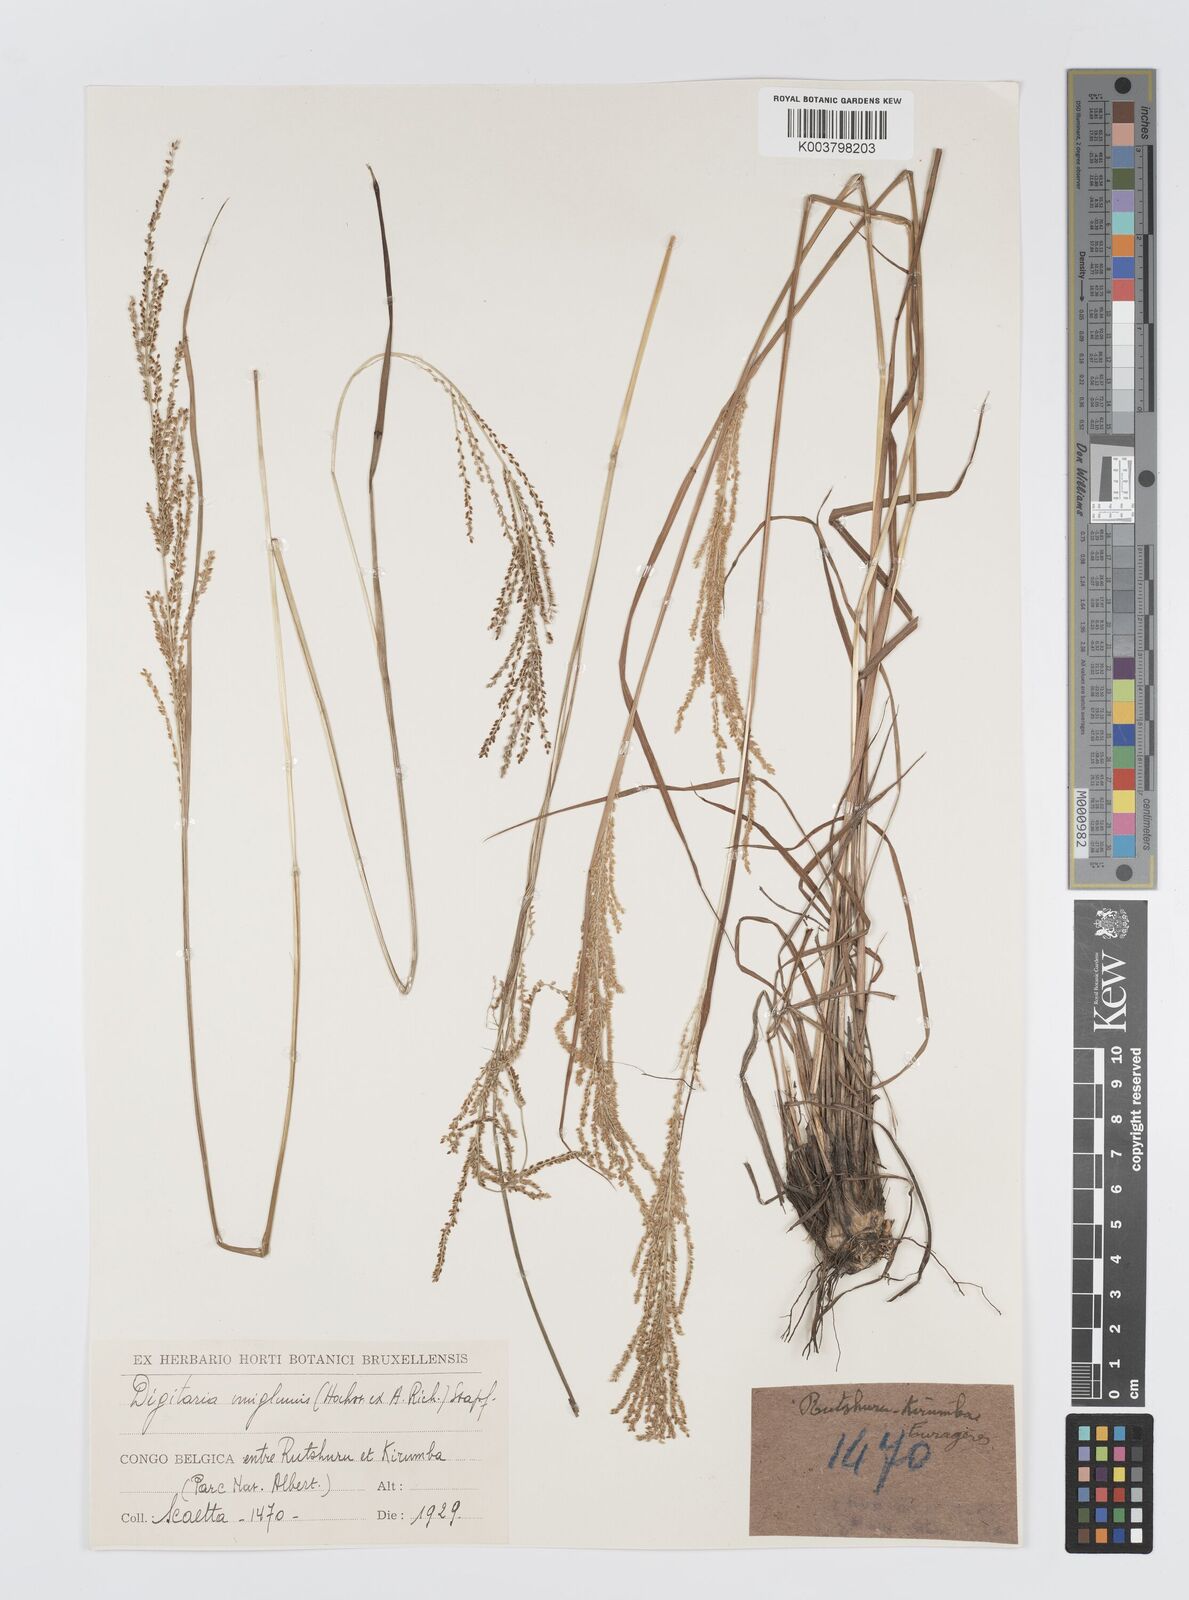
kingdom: Plantae
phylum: Tracheophyta
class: Liliopsida
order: Poales
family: Poaceae
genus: Digitaria
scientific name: Digitaria diagonalis
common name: Brown-seed finger grass
